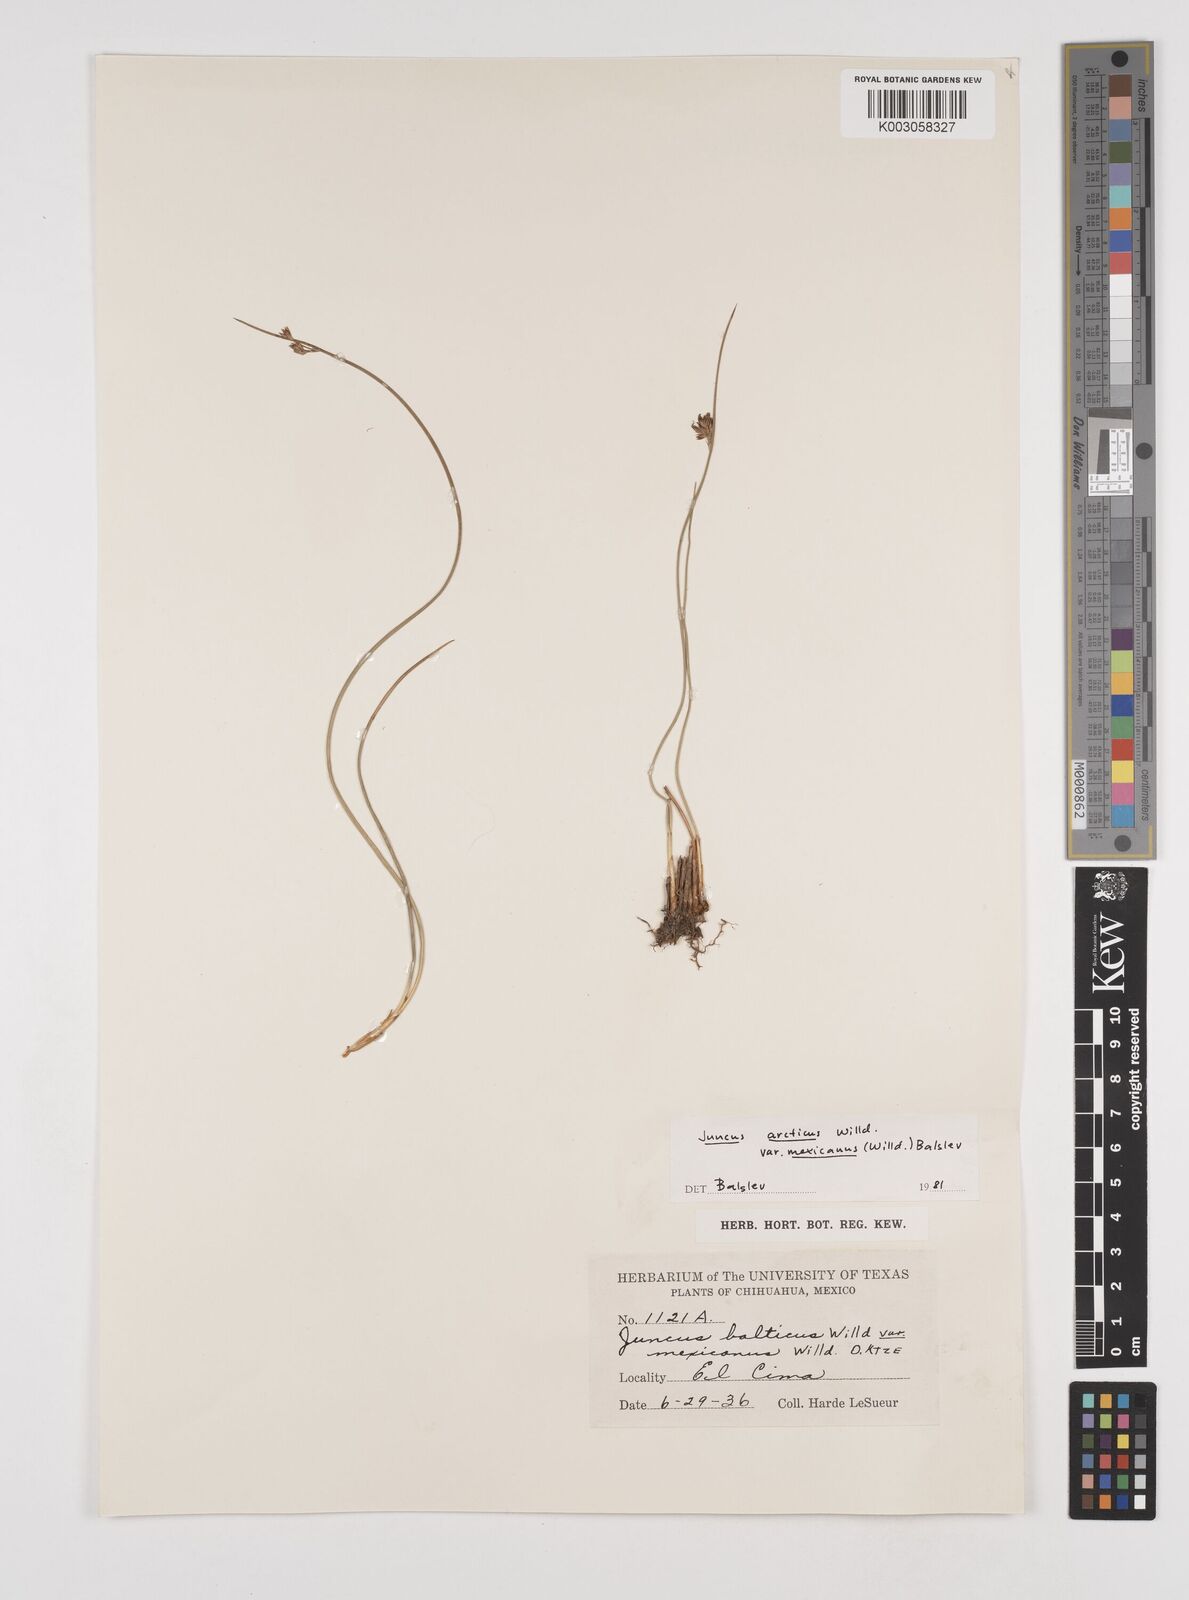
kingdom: Plantae
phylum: Tracheophyta
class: Liliopsida
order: Poales
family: Juncaceae
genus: Juncus
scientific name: Juncus arcticus
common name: Arctic rush
